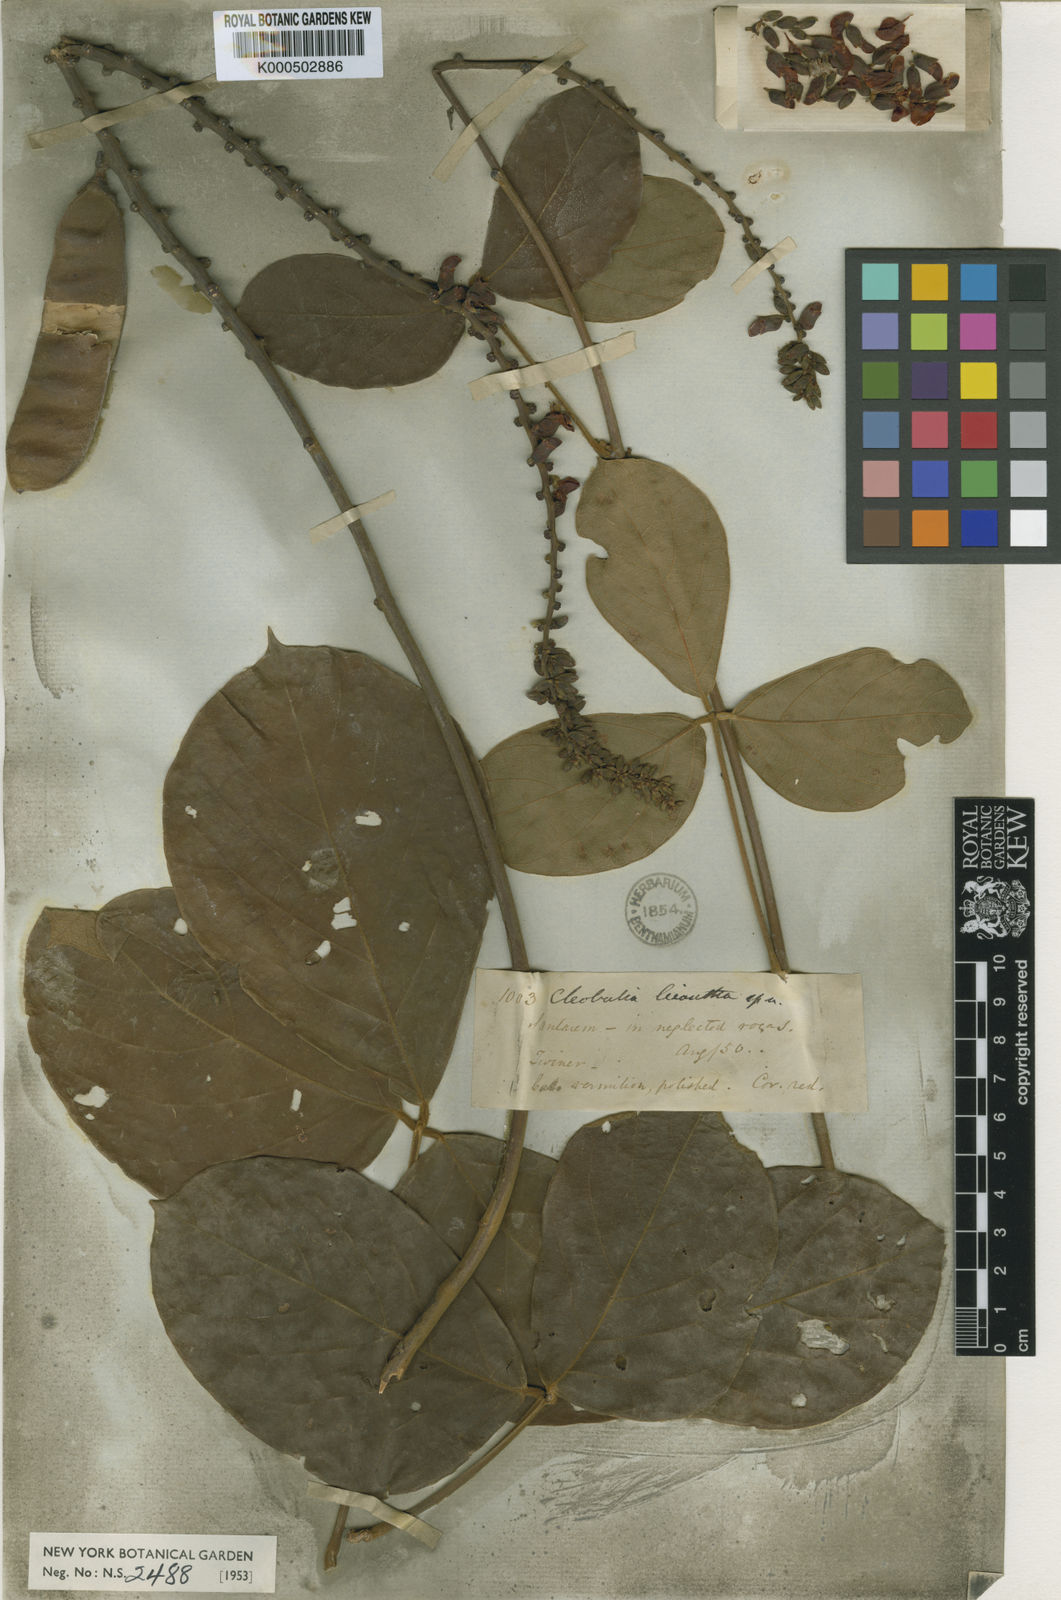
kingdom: Plantae
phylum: Tracheophyta
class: Magnoliopsida
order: Fabales
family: Fabaceae
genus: Cleobulia
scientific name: Cleobulia leiantha
